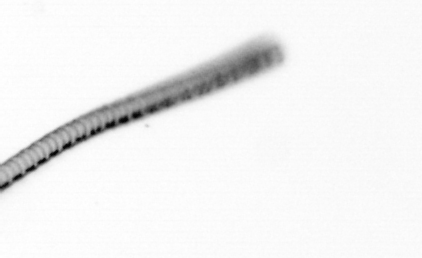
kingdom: Chromista
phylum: Ochrophyta
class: Bacillariophyceae
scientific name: Bacillariophyceae
